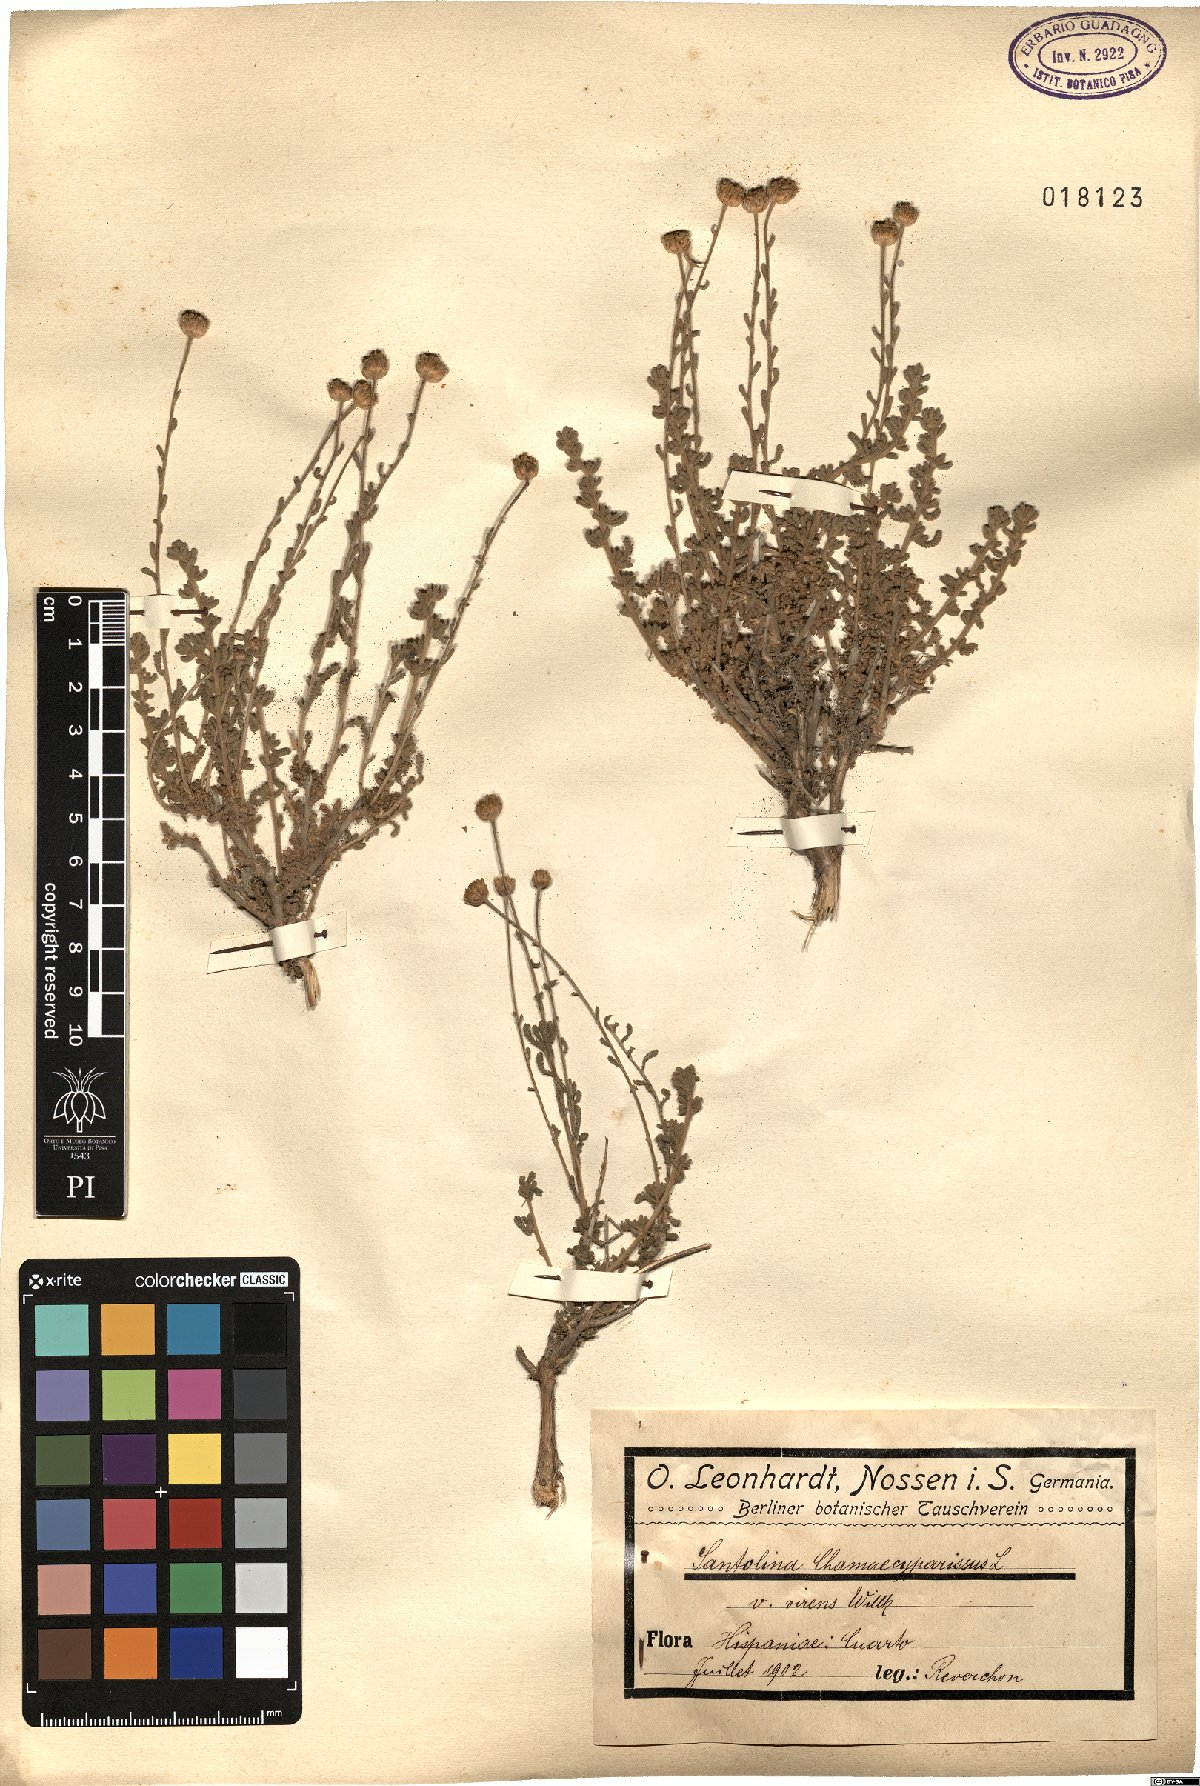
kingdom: Plantae
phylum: Tracheophyta
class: Magnoliopsida
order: Asterales
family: Asteraceae
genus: Santolina
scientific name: Santolina ericoides
